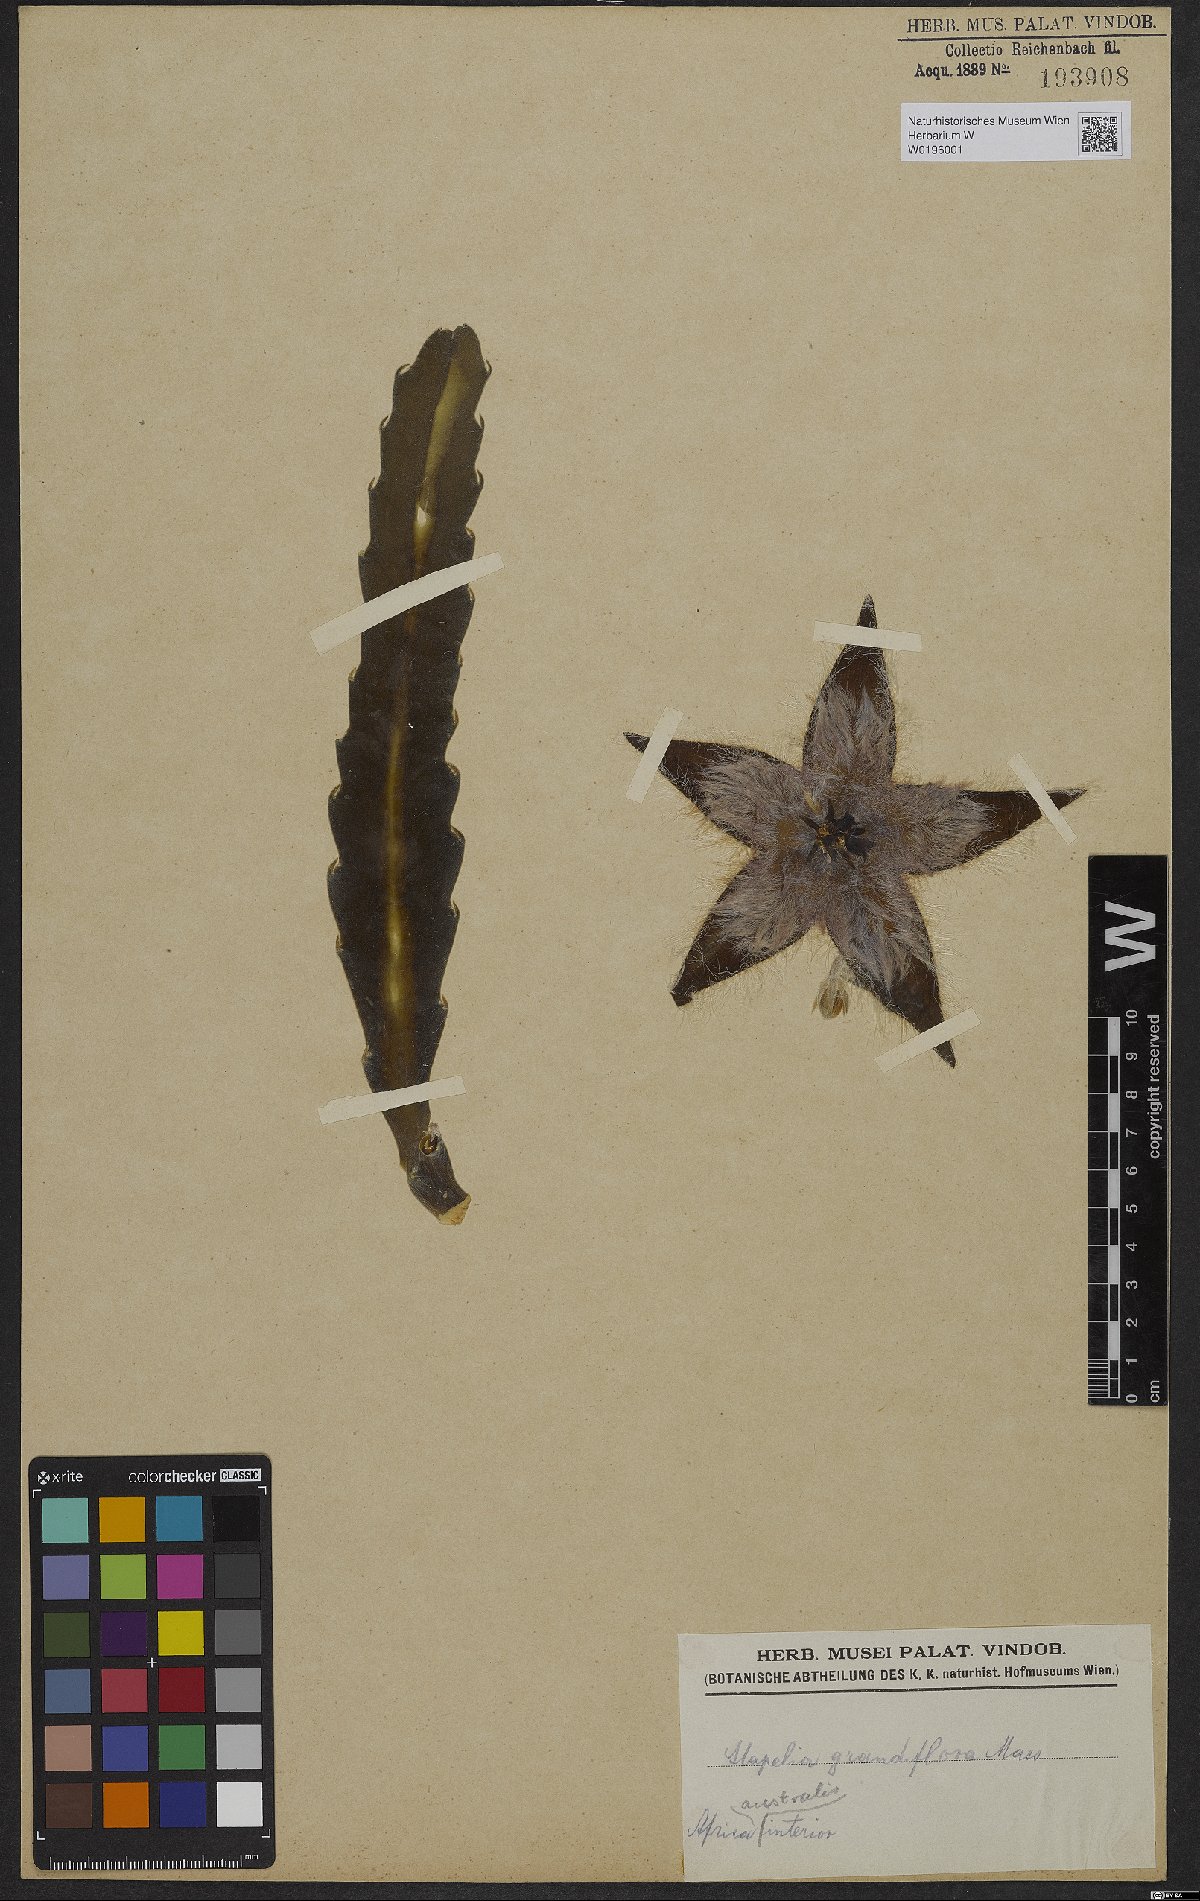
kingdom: Plantae
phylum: Tracheophyta
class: Magnoliopsida
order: Gentianales
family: Apocynaceae
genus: Ceropegia
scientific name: Ceropegia grandiflora
